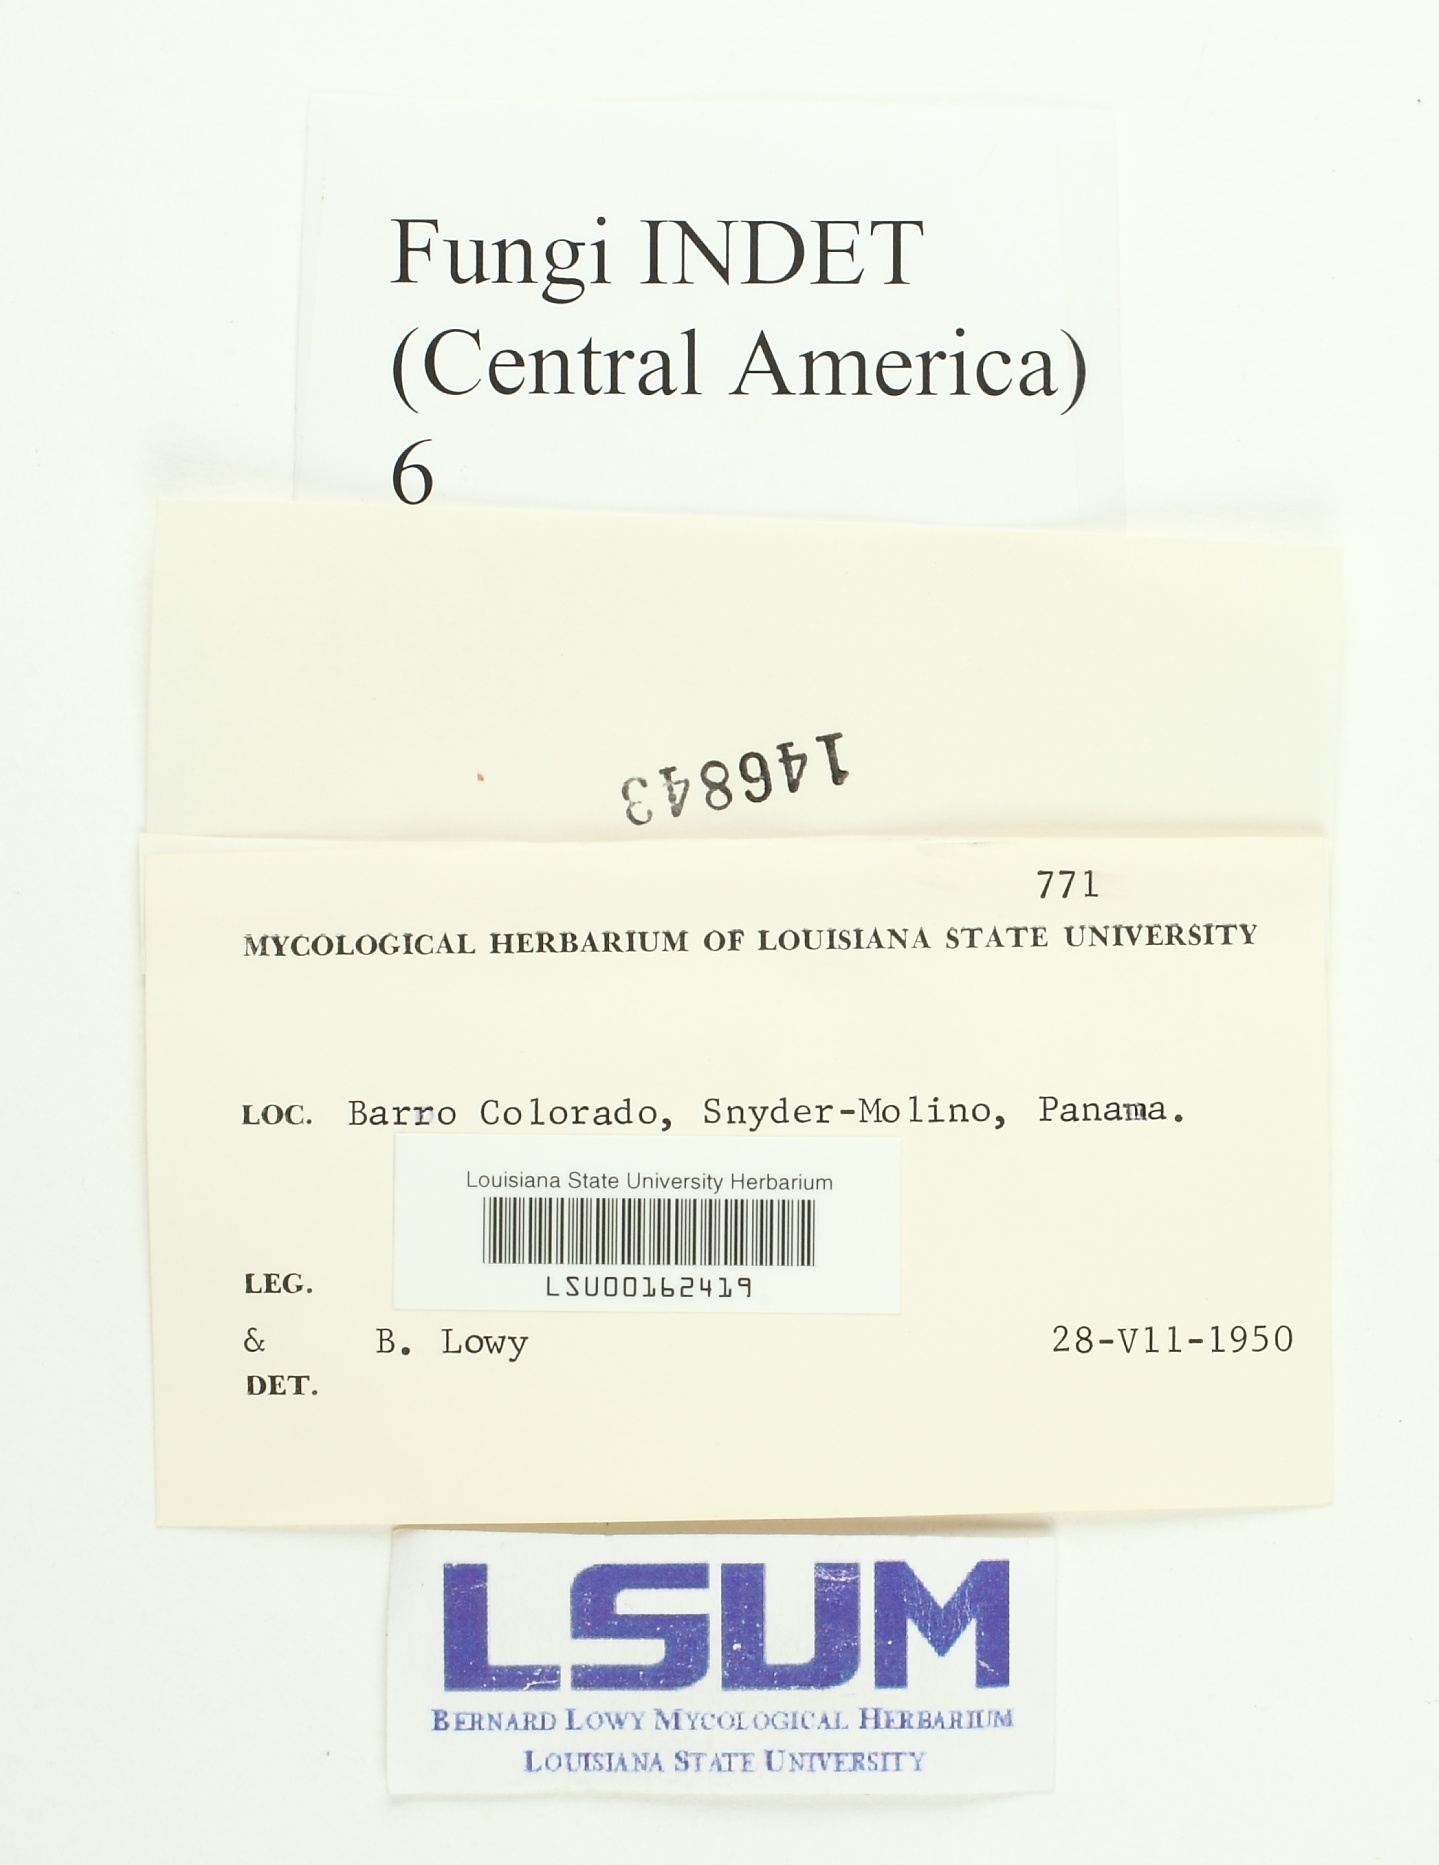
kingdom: Fungi
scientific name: Fungi
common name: Fungi
